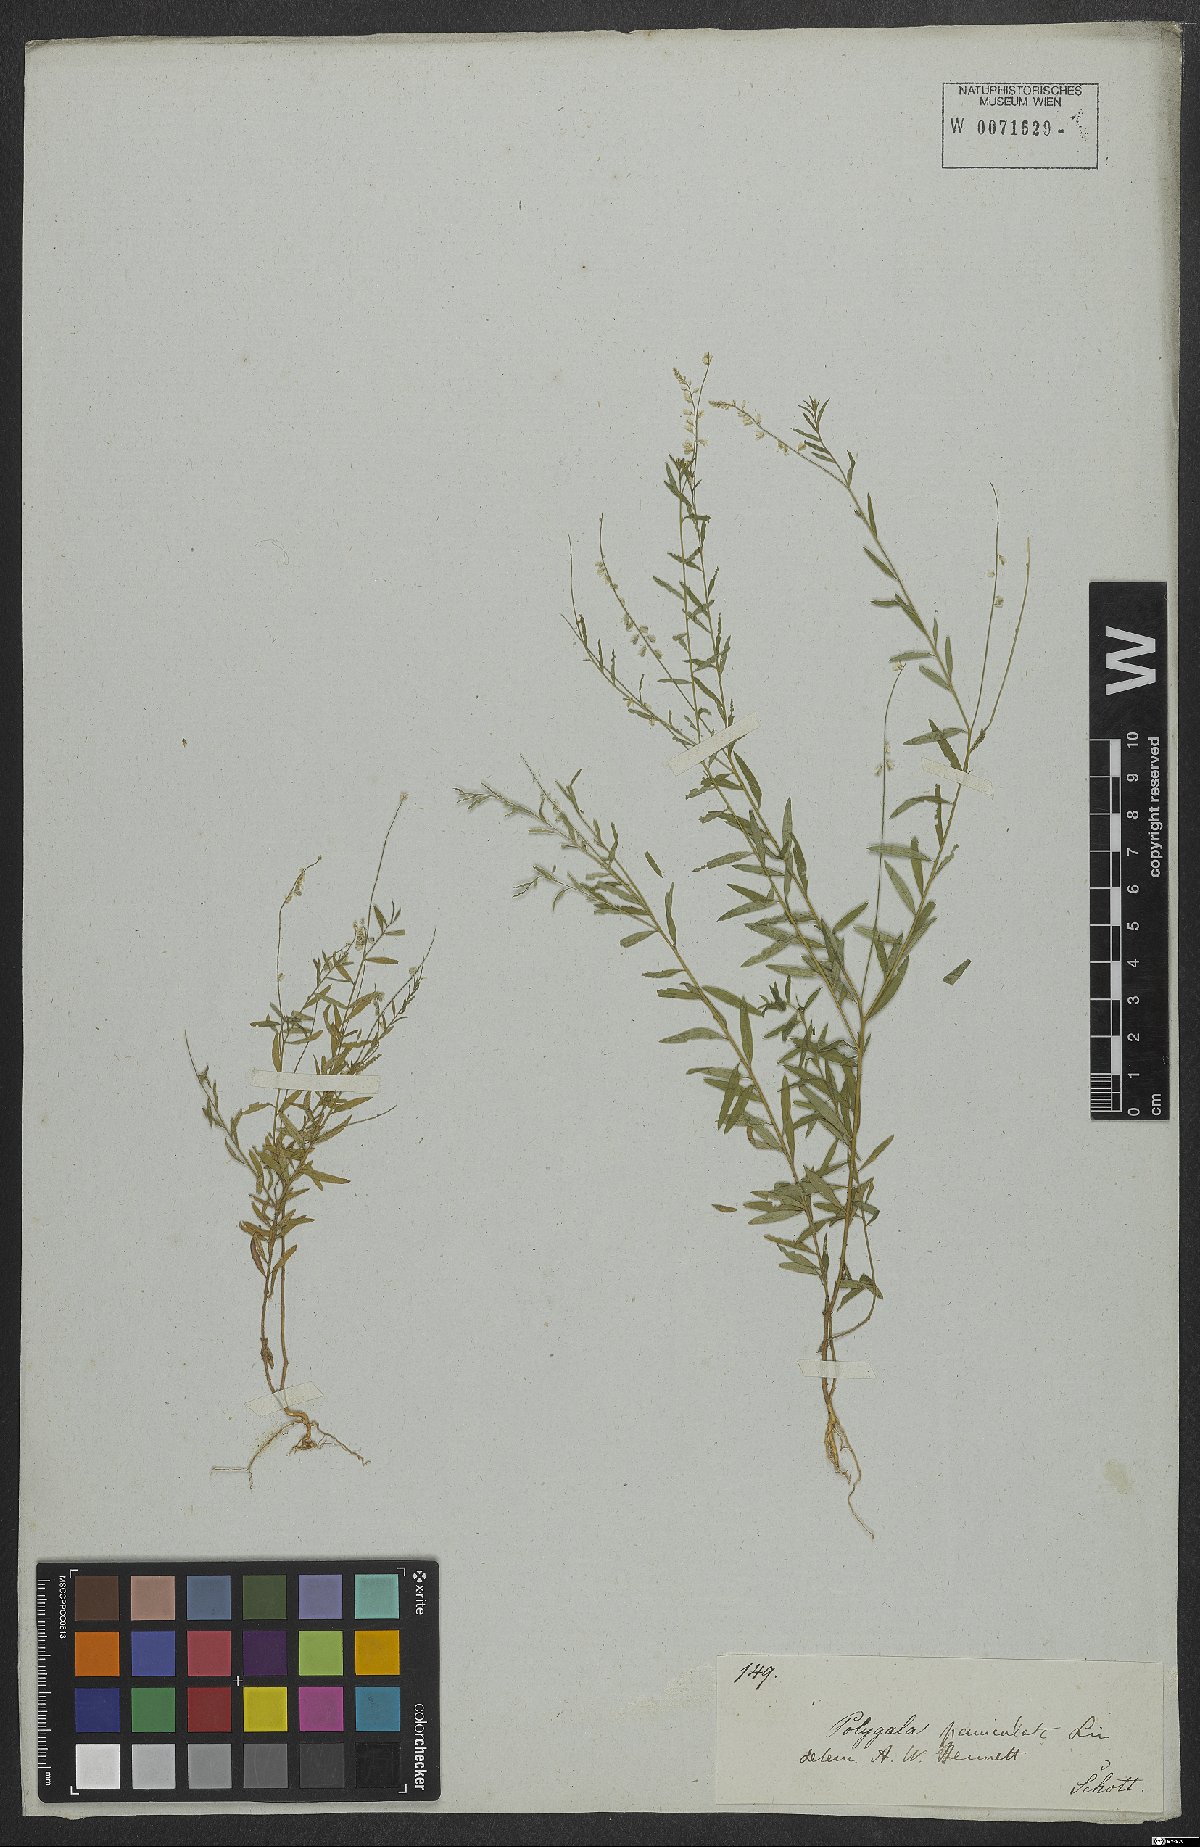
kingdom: Plantae
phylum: Tracheophyta
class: Magnoliopsida
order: Fabales
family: Polygalaceae
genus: Polygala
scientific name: Polygala exilis
